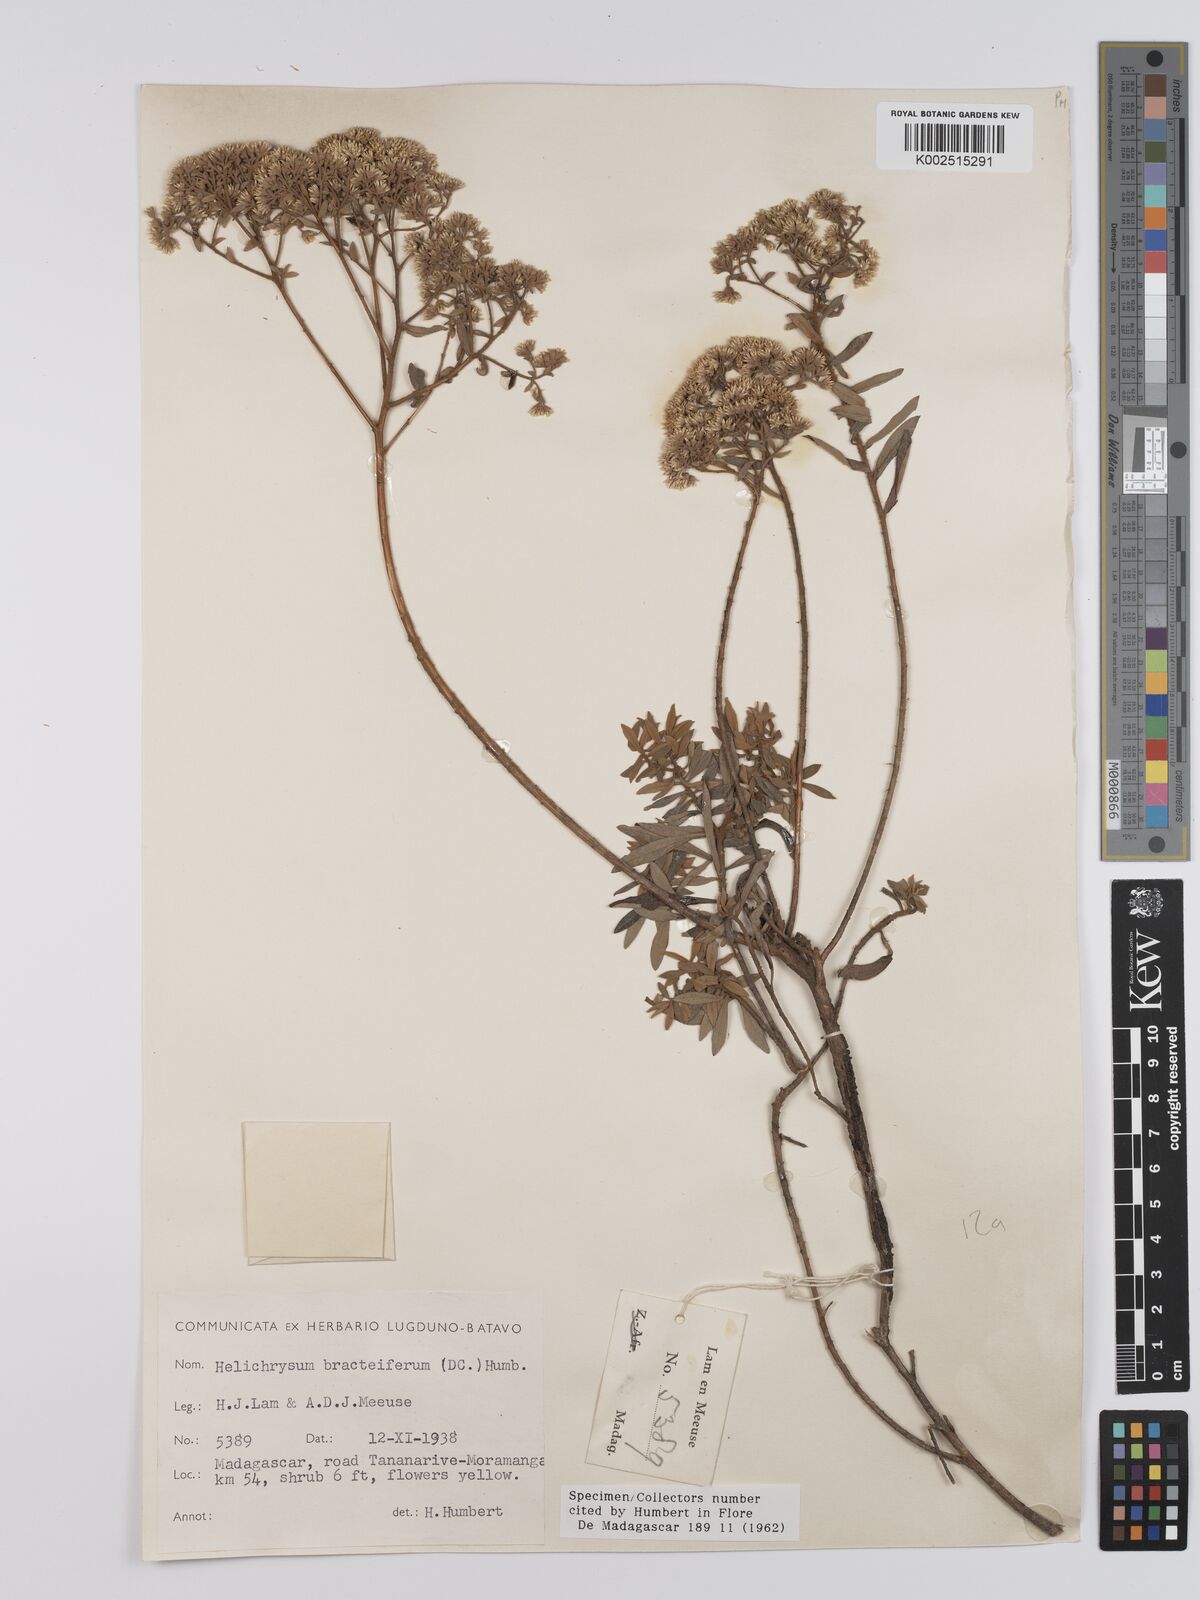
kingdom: Plantae
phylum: Tracheophyta
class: Magnoliopsida
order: Asterales
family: Asteraceae
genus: Helichrysum
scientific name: Helichrysum bracteiferum
